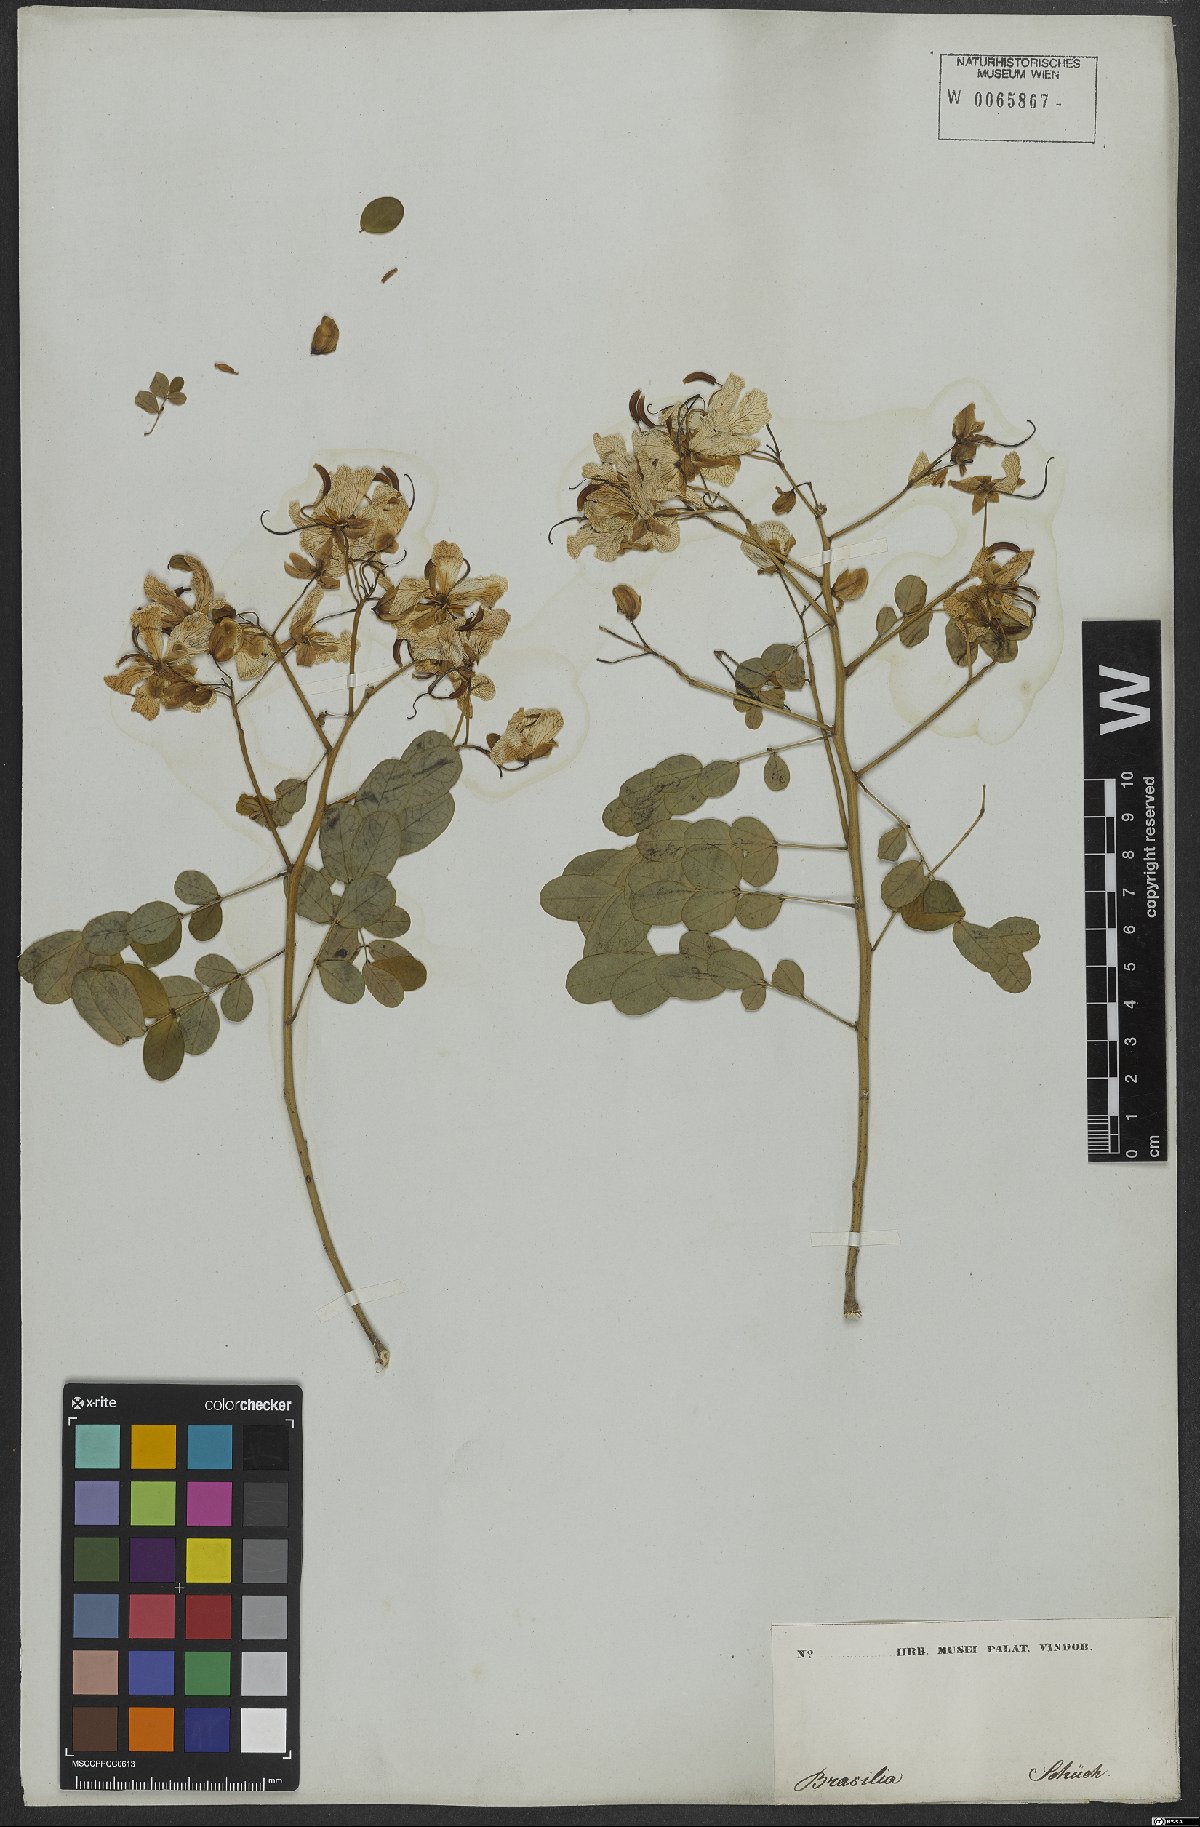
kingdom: Plantae
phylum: Tracheophyta
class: Magnoliopsida
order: Fabales
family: Fabaceae
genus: Senna
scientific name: Senna bicapsularis
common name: Christmasbush
